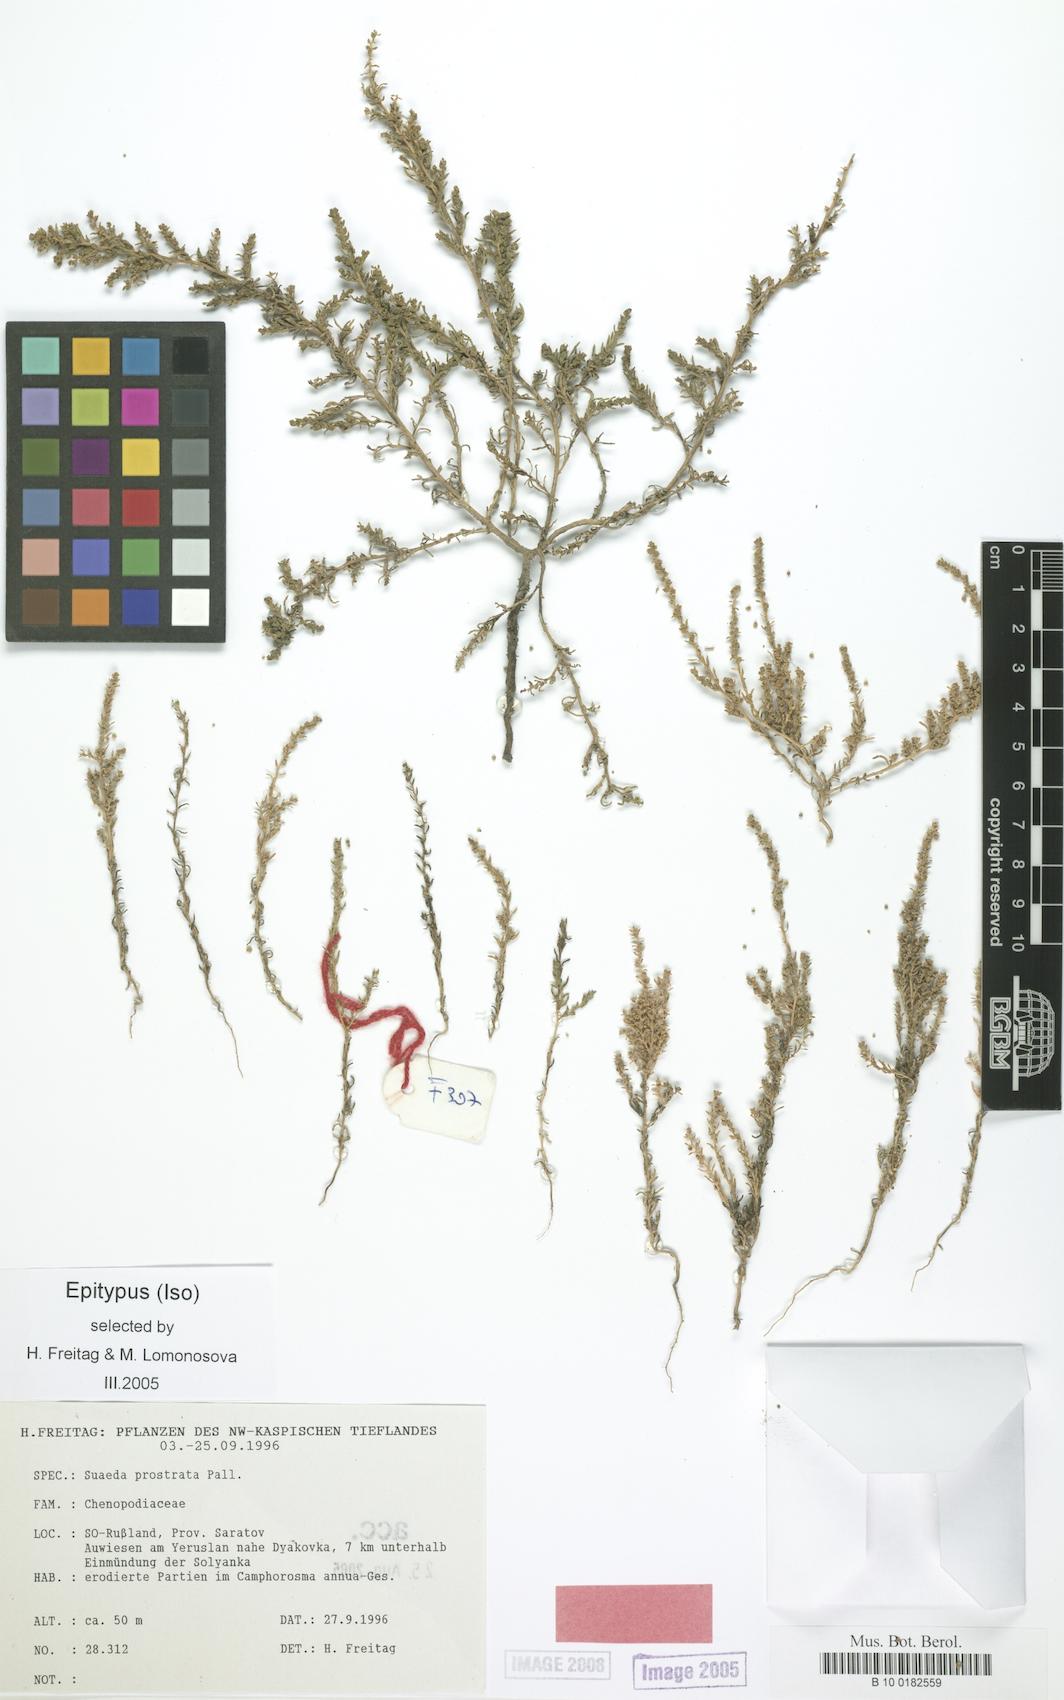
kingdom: Plantae
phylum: Tracheophyta
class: Magnoliopsida
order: Caryophyllales
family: Amaranthaceae
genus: Suaeda
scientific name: Suaeda prostrata
